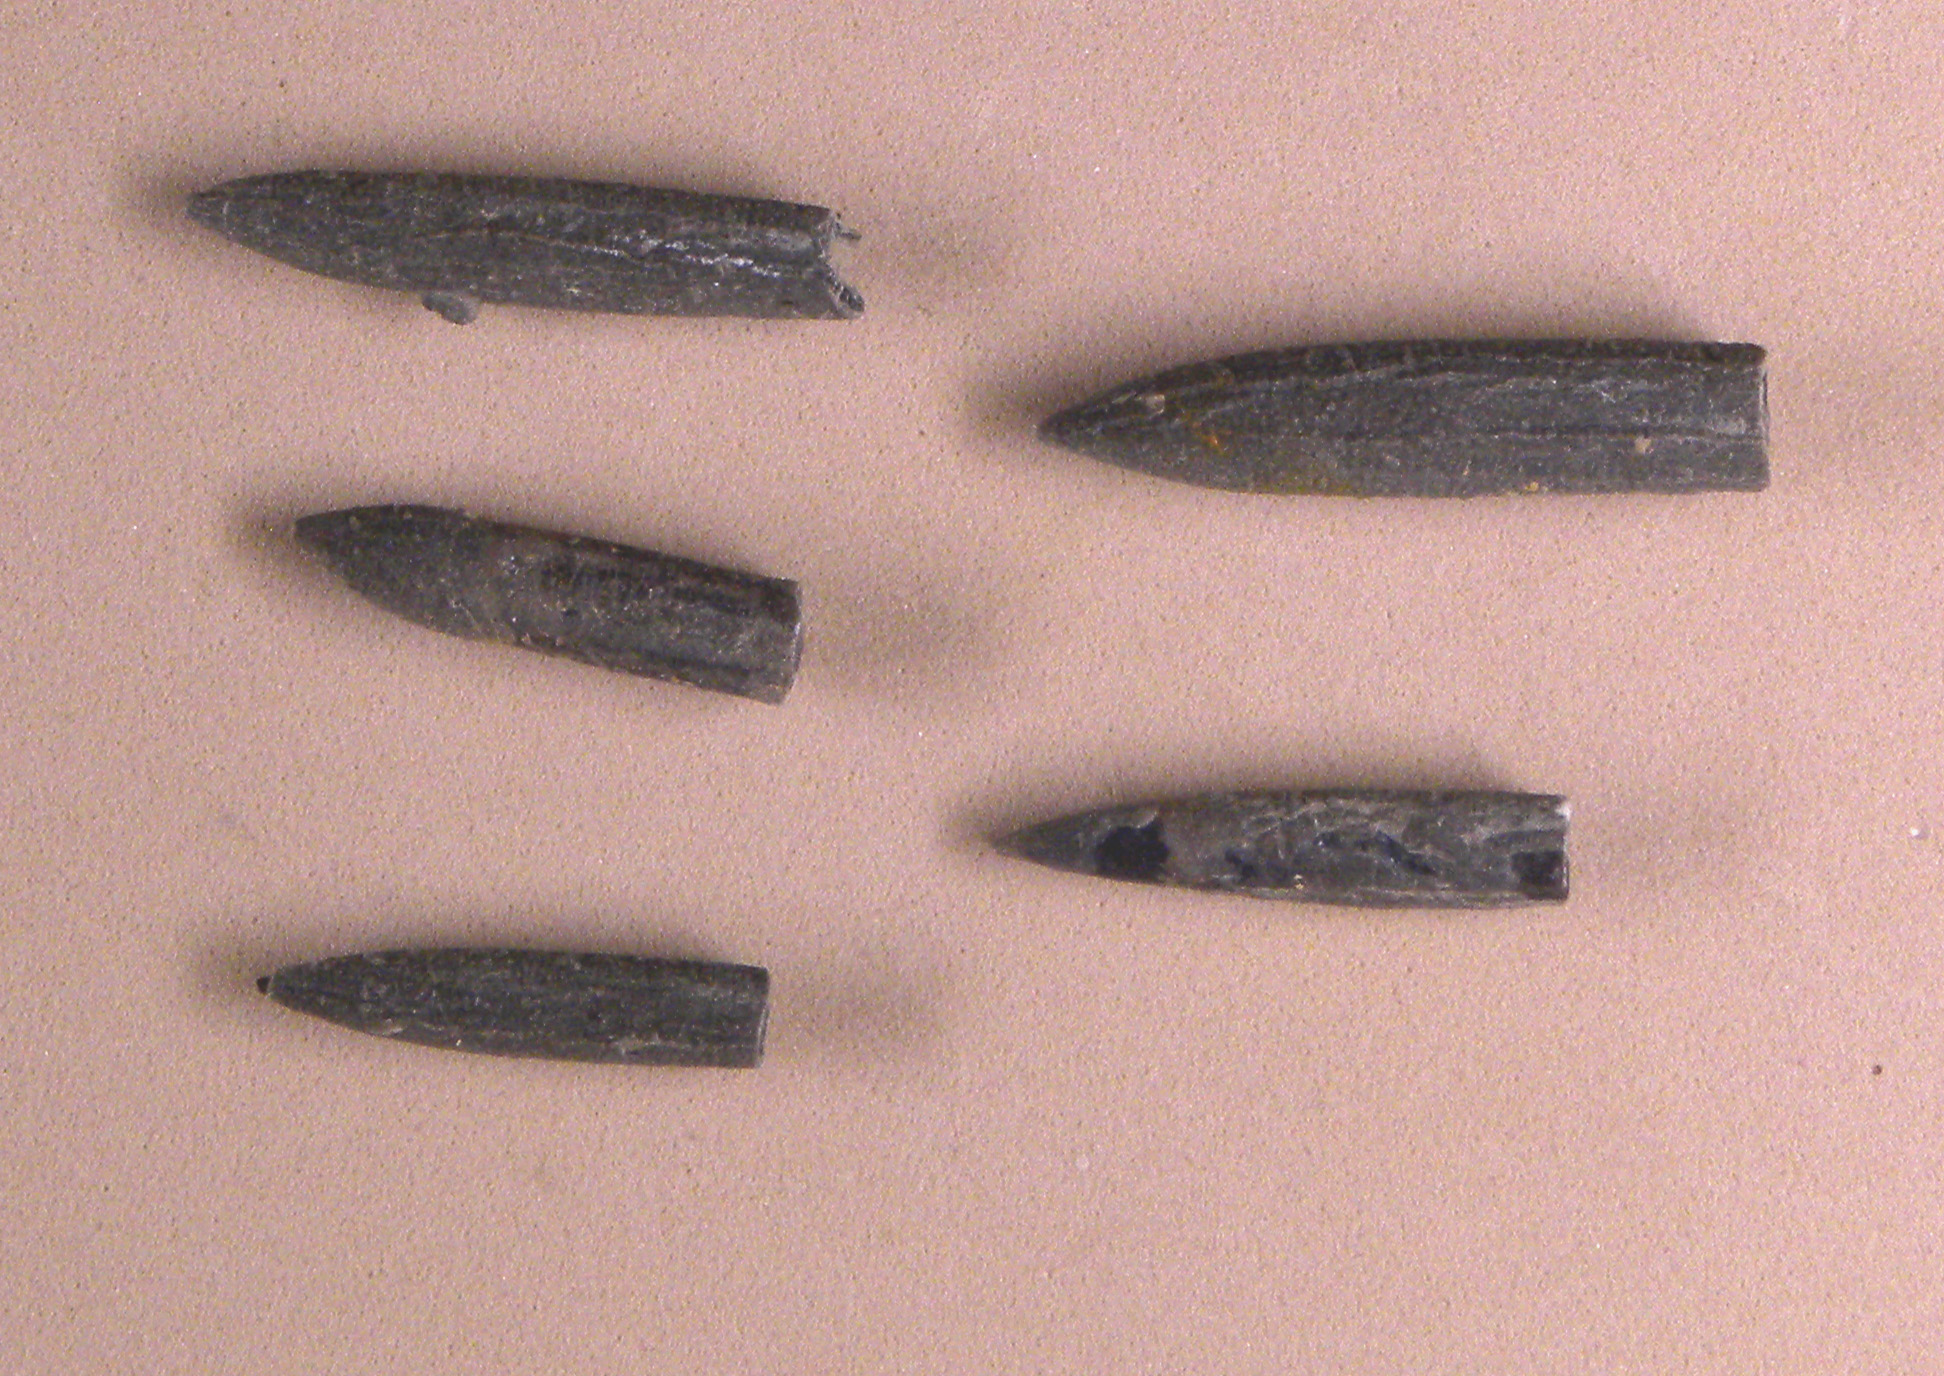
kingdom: Animalia
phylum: Mollusca
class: Cephalopoda
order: Belemnitida
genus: Rhabdobelus
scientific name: Rhabdobelus donovani
